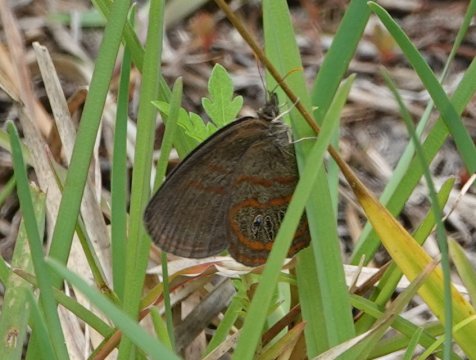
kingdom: Animalia
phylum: Arthropoda
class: Insecta
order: Lepidoptera
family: Nymphalidae
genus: Euptychia
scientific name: Euptychia phocion
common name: Georgia Satyr
